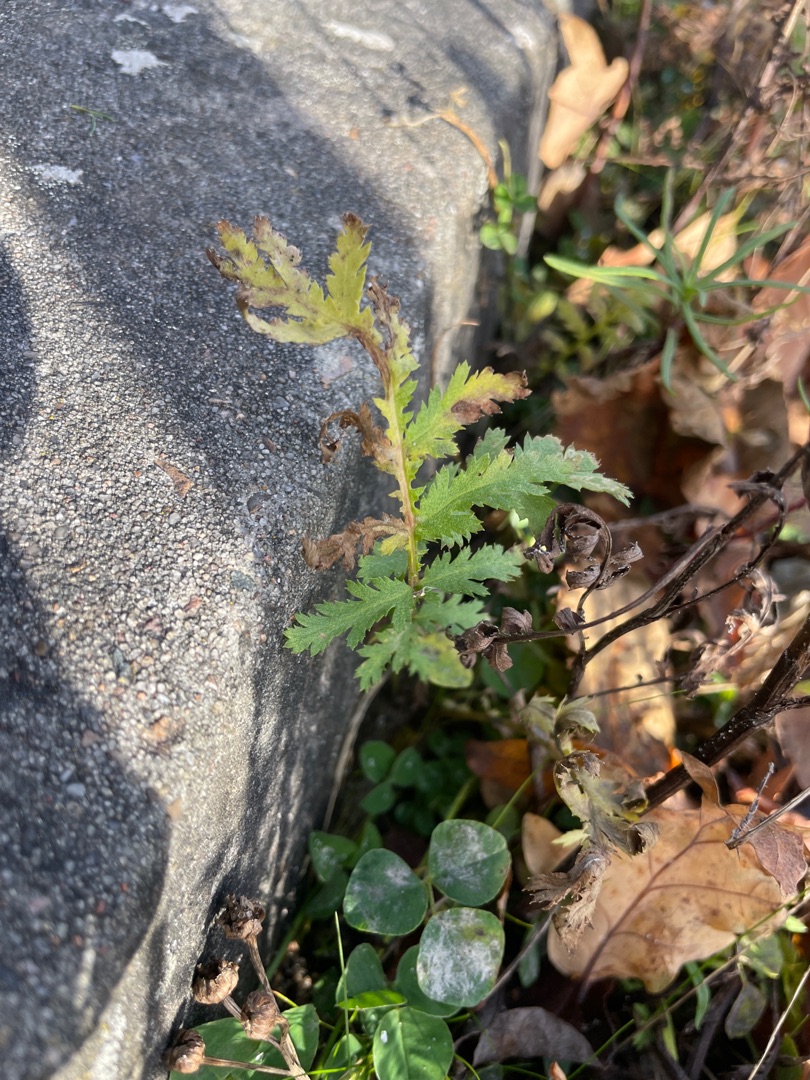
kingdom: Plantae
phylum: Tracheophyta
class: Magnoliopsida
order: Asterales
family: Asteraceae
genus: Tanacetum
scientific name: Tanacetum vulgare
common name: Rejnfan
